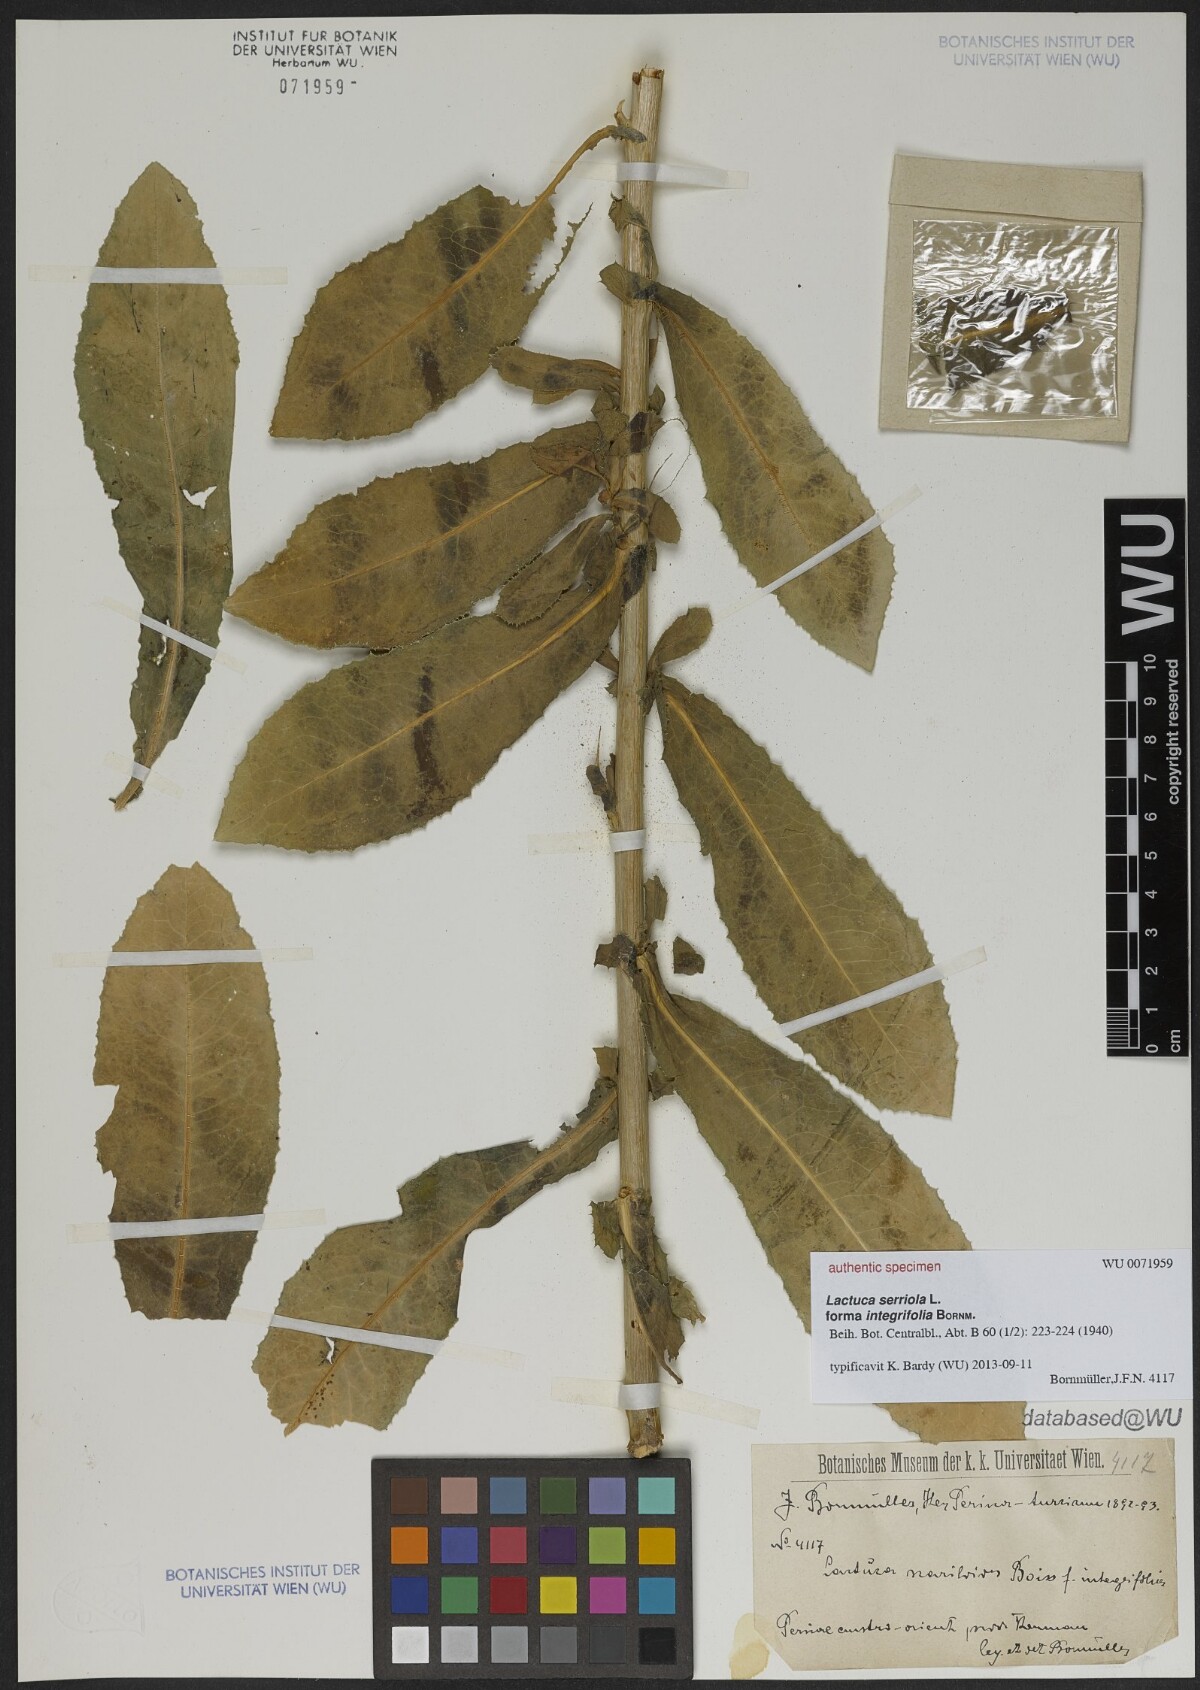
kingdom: Plantae
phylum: Tracheophyta
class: Magnoliopsida
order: Asterales
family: Asteraceae
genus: Lactuca
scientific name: Lactuca serriola
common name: Prickly lettuce
